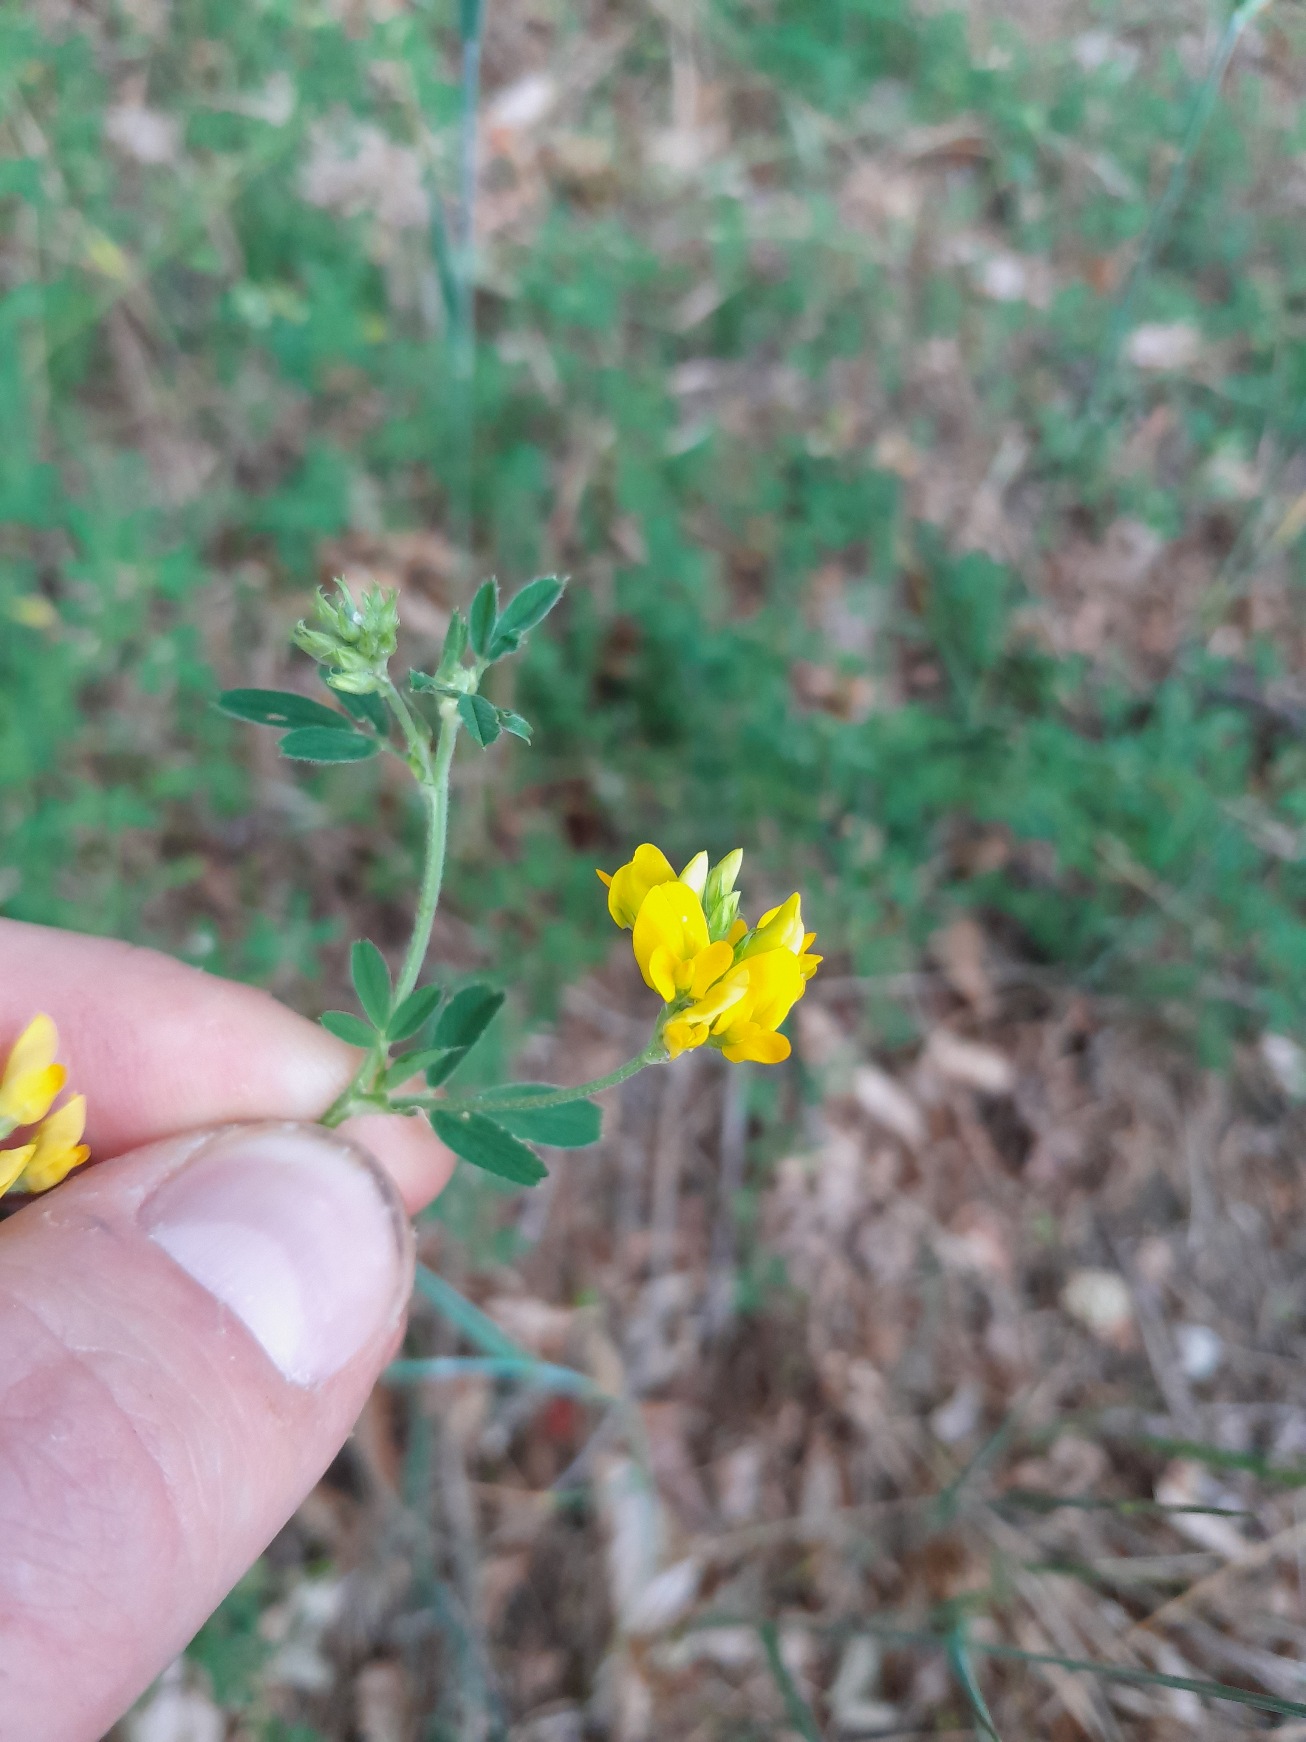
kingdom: Plantae
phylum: Tracheophyta
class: Magnoliopsida
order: Fabales
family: Fabaceae
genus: Medicago
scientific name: Medicago falcata
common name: Segl-sneglebælg
